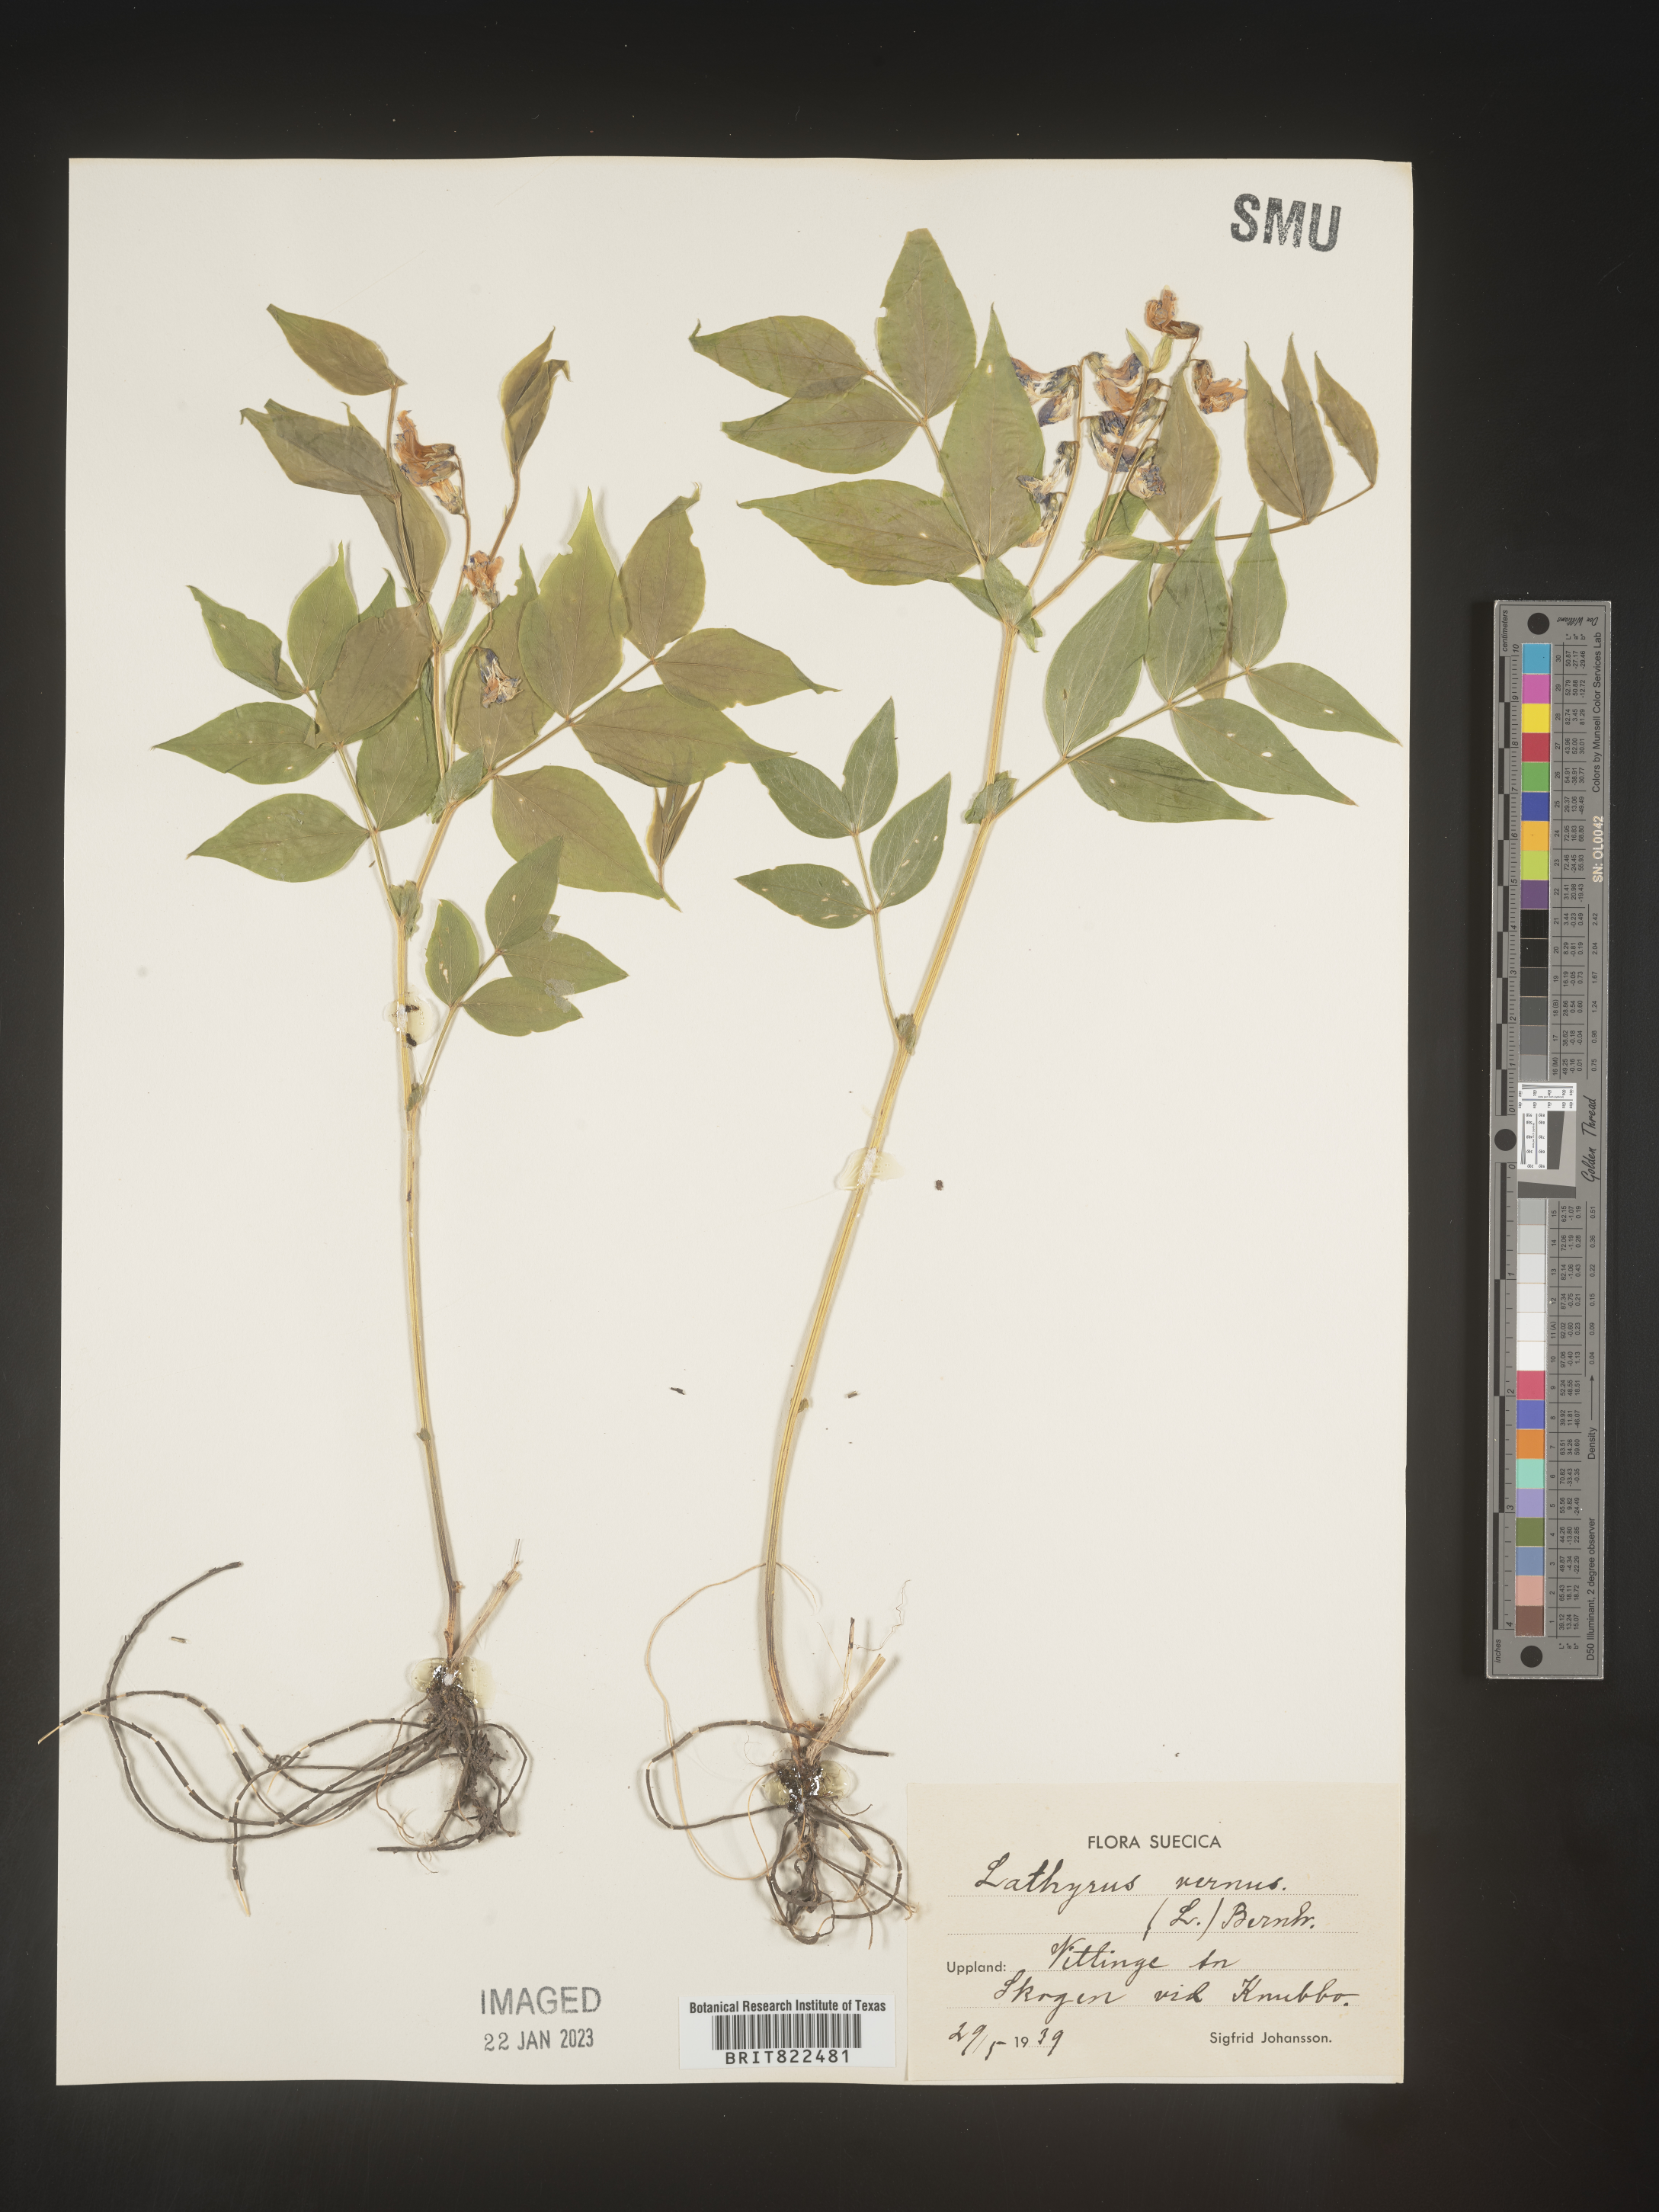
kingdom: Plantae
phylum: Tracheophyta
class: Magnoliopsida
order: Fabales
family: Fabaceae
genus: Lathyrus
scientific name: Lathyrus
